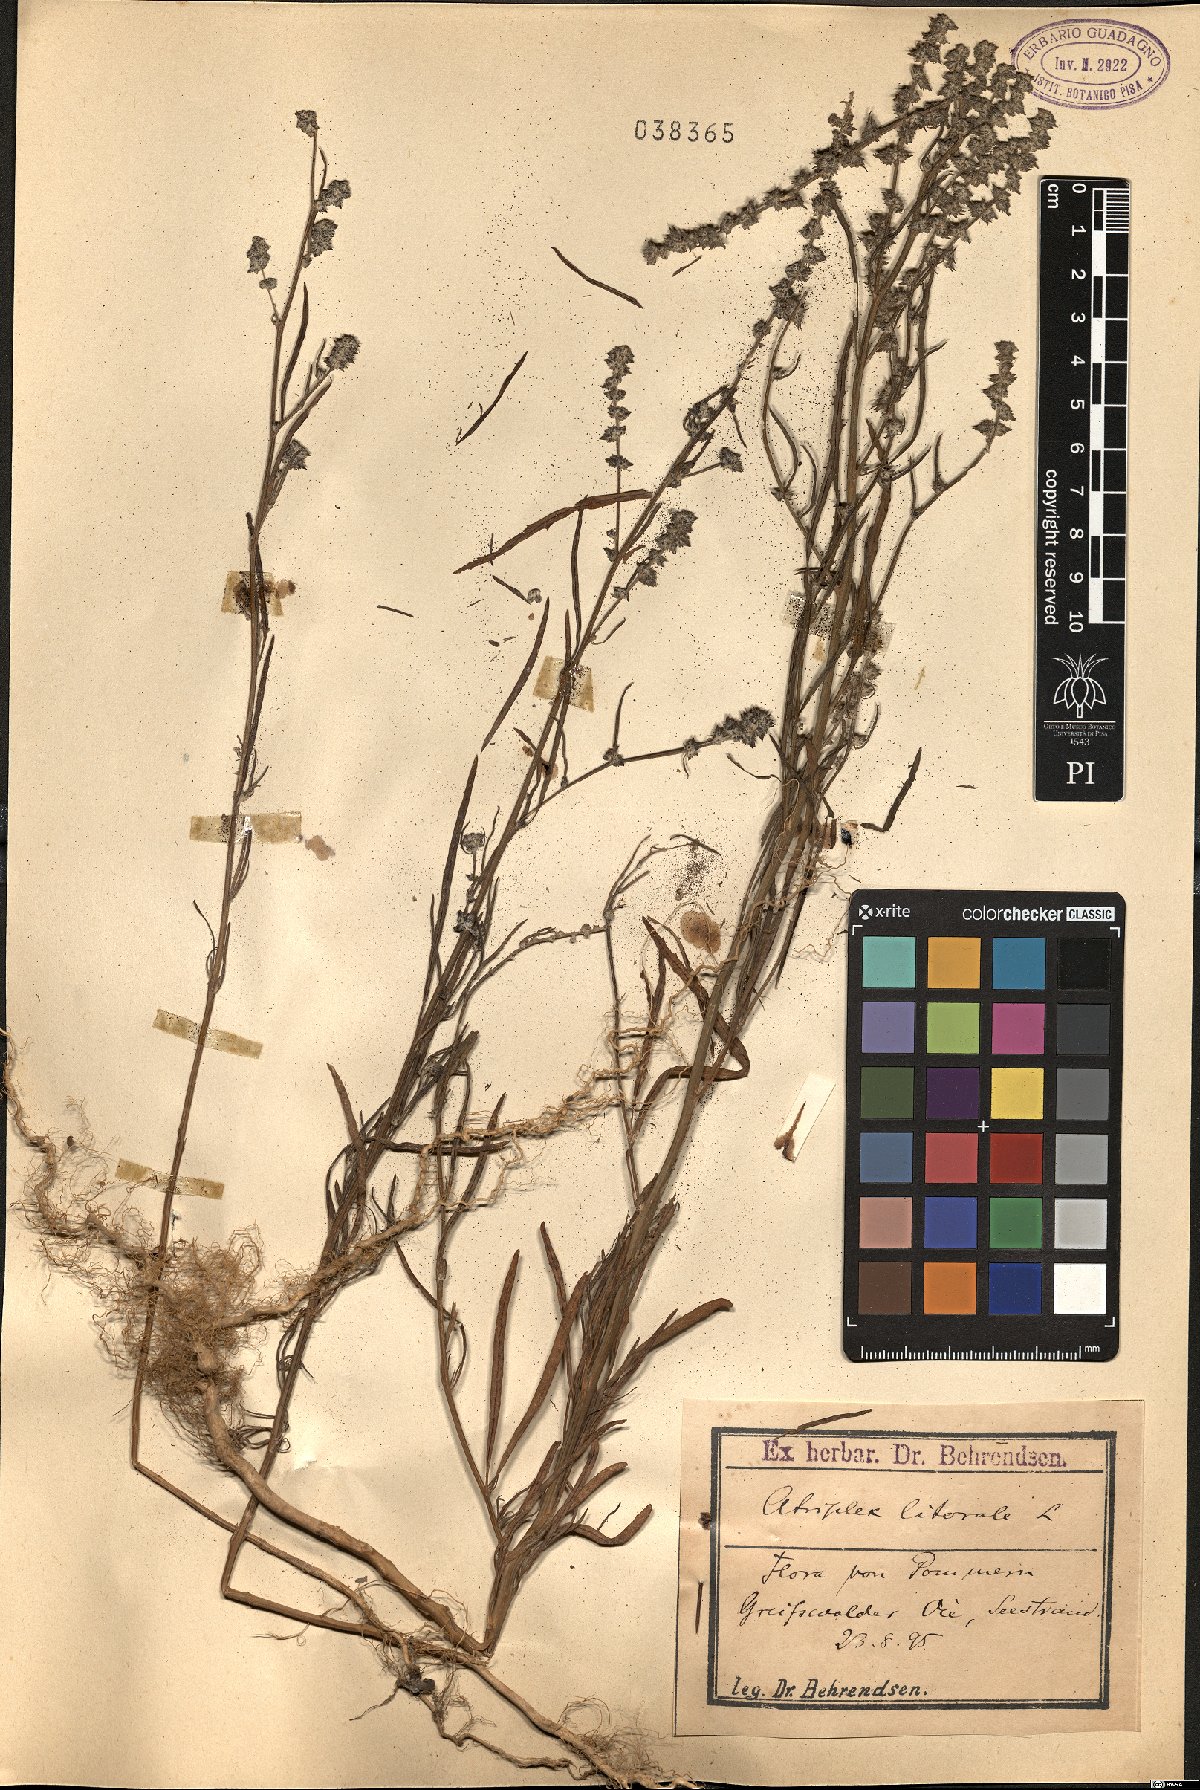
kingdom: Plantae
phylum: Tracheophyta
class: Magnoliopsida
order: Caryophyllales
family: Amaranthaceae
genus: Atriplex
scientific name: Atriplex littoralis
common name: Grass-leaved orache
